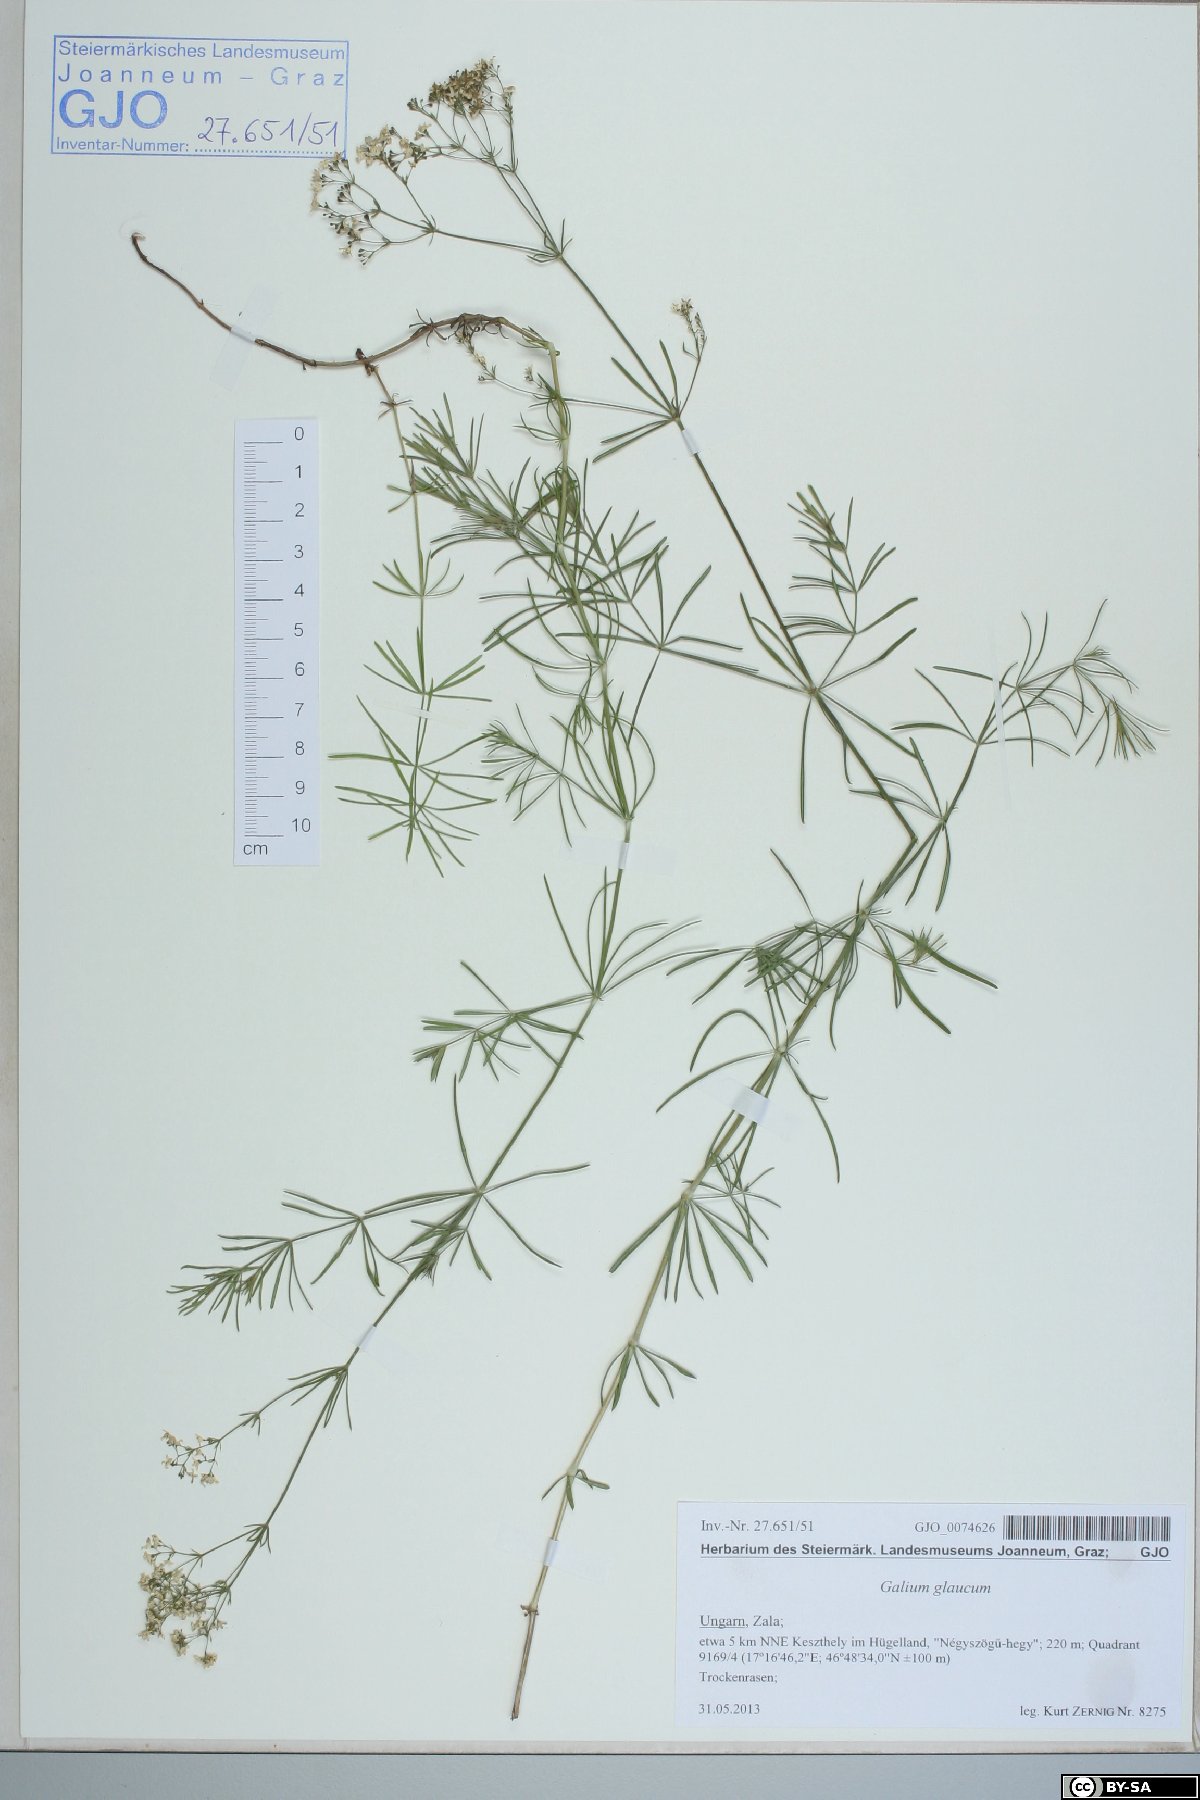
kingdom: Plantae
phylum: Tracheophyta
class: Magnoliopsida
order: Gentianales
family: Rubiaceae
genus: Galium
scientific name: Galium glaucum
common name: Waxy bedstraw
